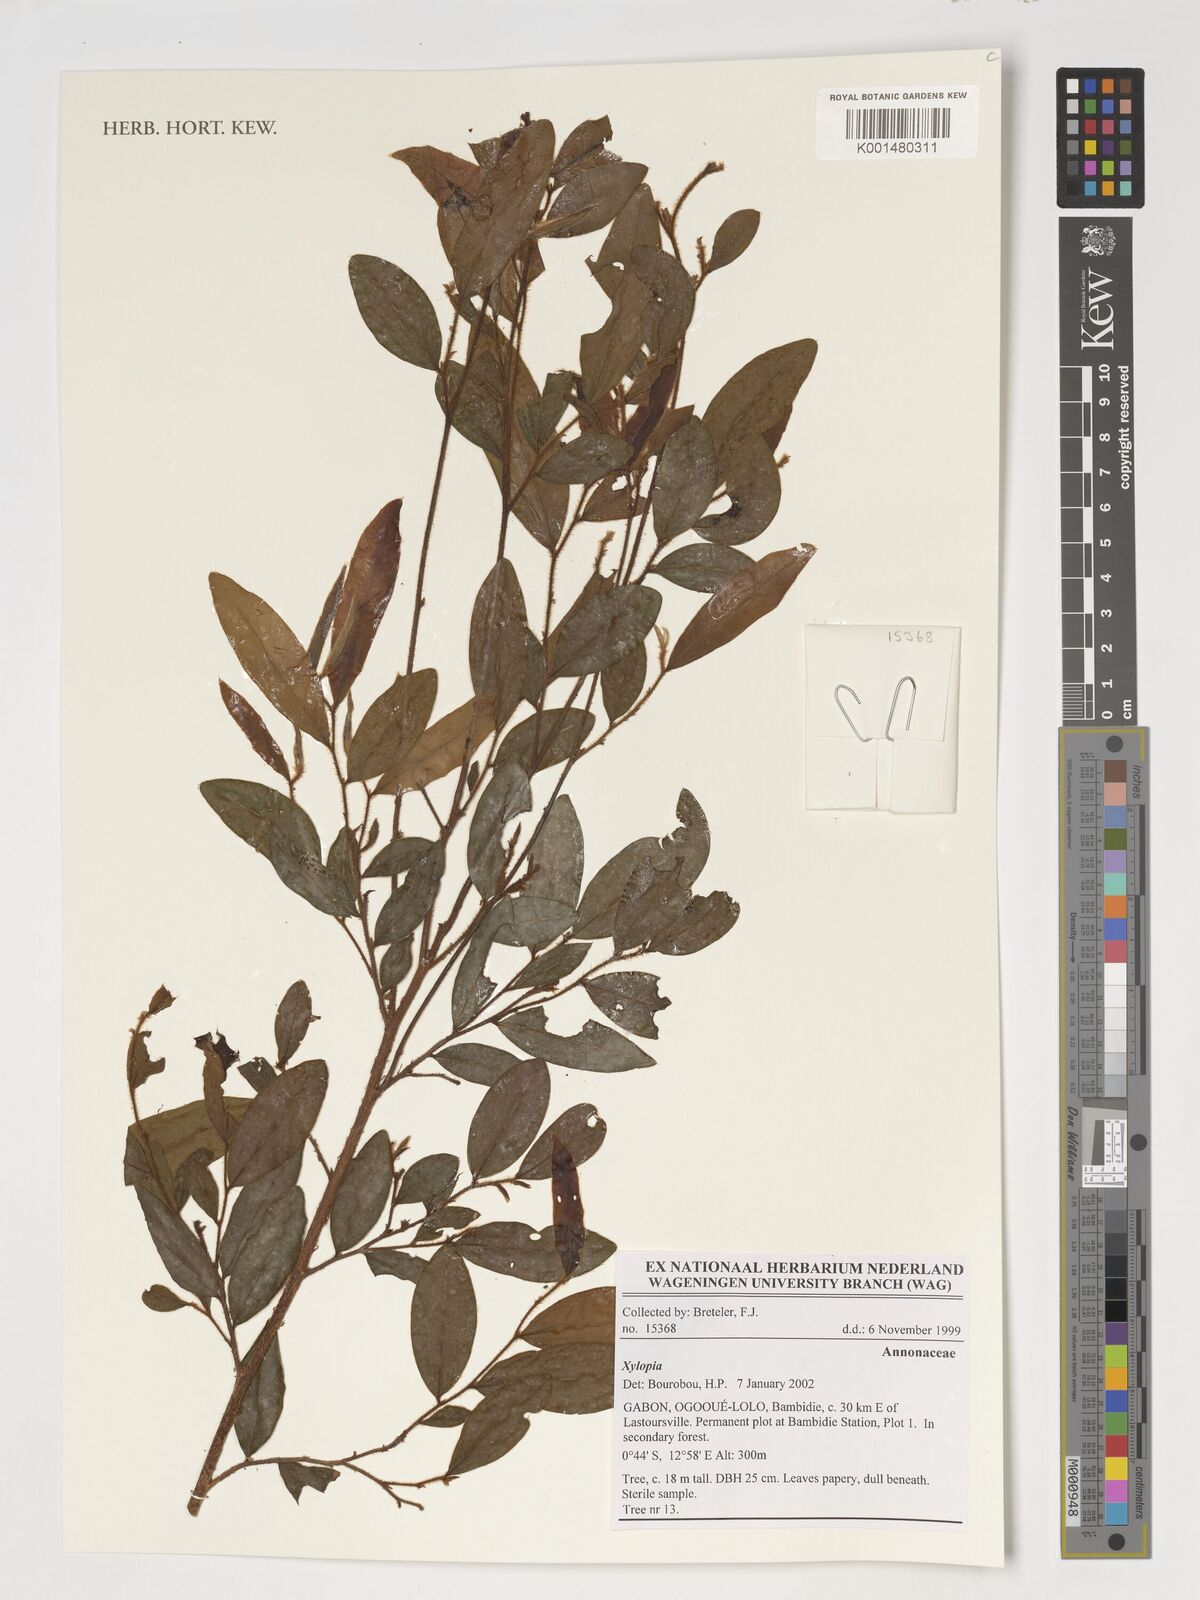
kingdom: Plantae
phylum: Tracheophyta
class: Magnoliopsida
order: Magnoliales
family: Annonaceae
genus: Xylopia
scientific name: Xylopia
